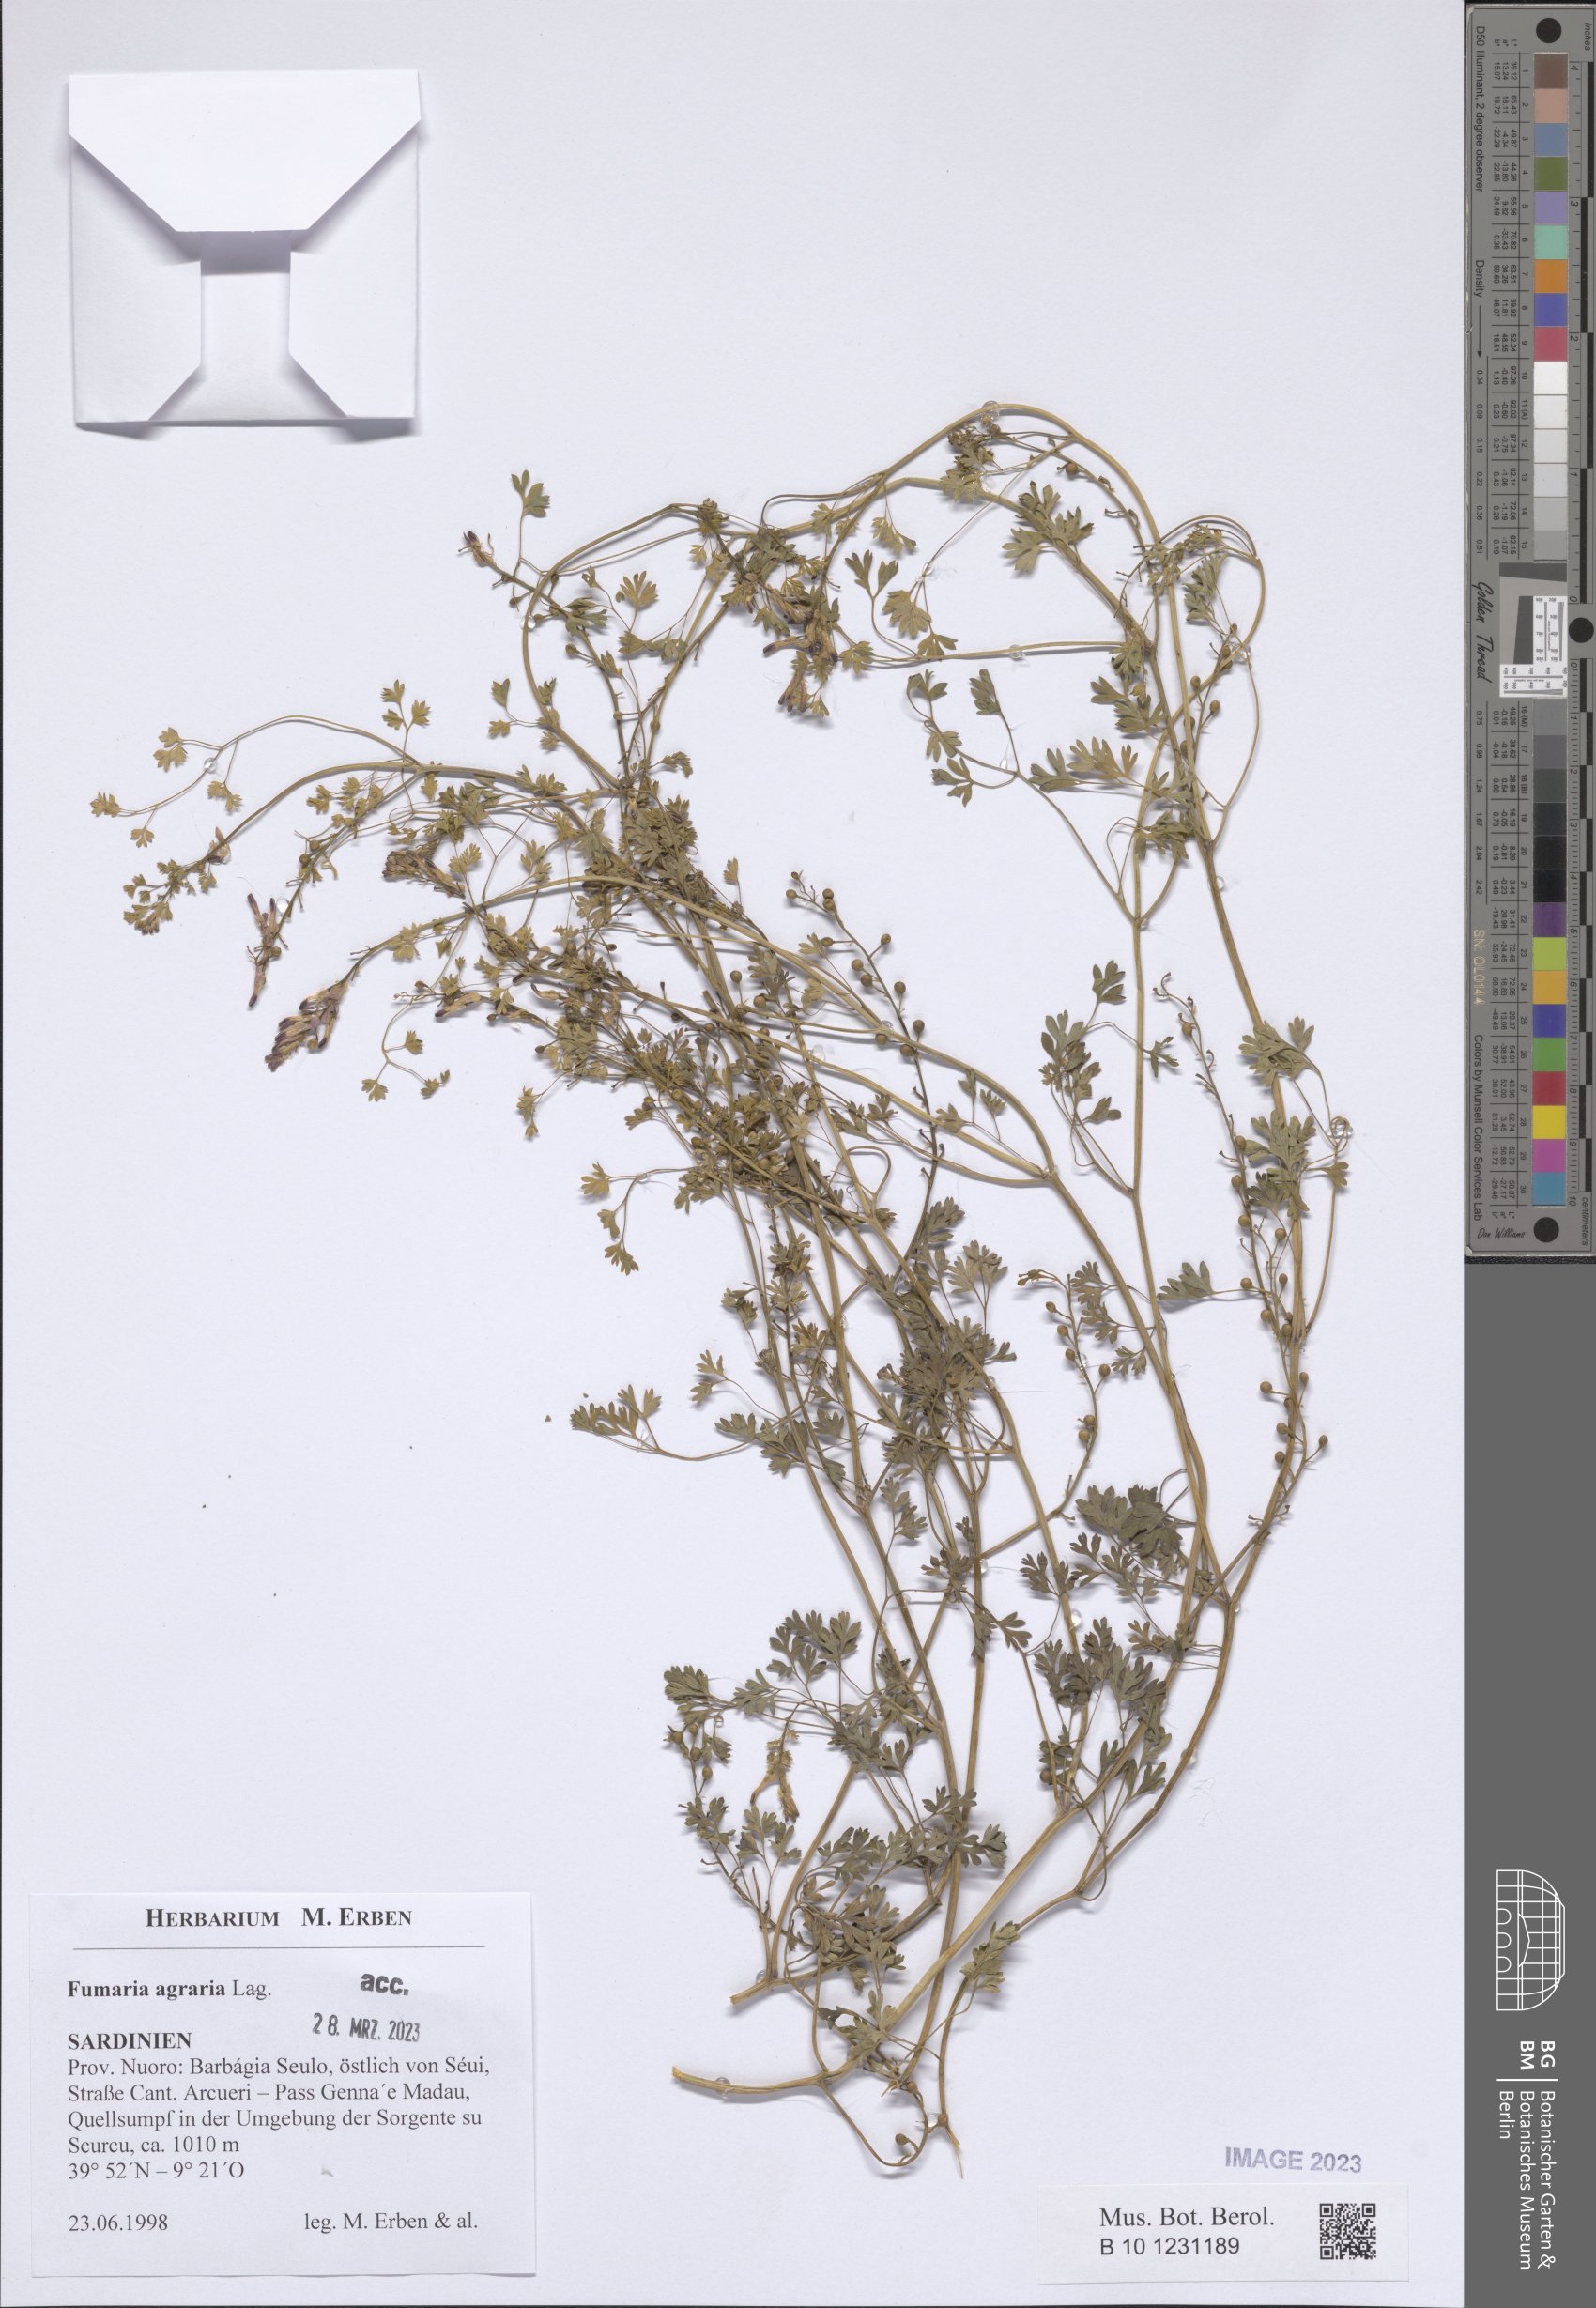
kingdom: Plantae
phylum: Tracheophyta
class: Magnoliopsida
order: Ranunculales
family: Papaveraceae
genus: Fumaria
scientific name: Fumaria agraria
